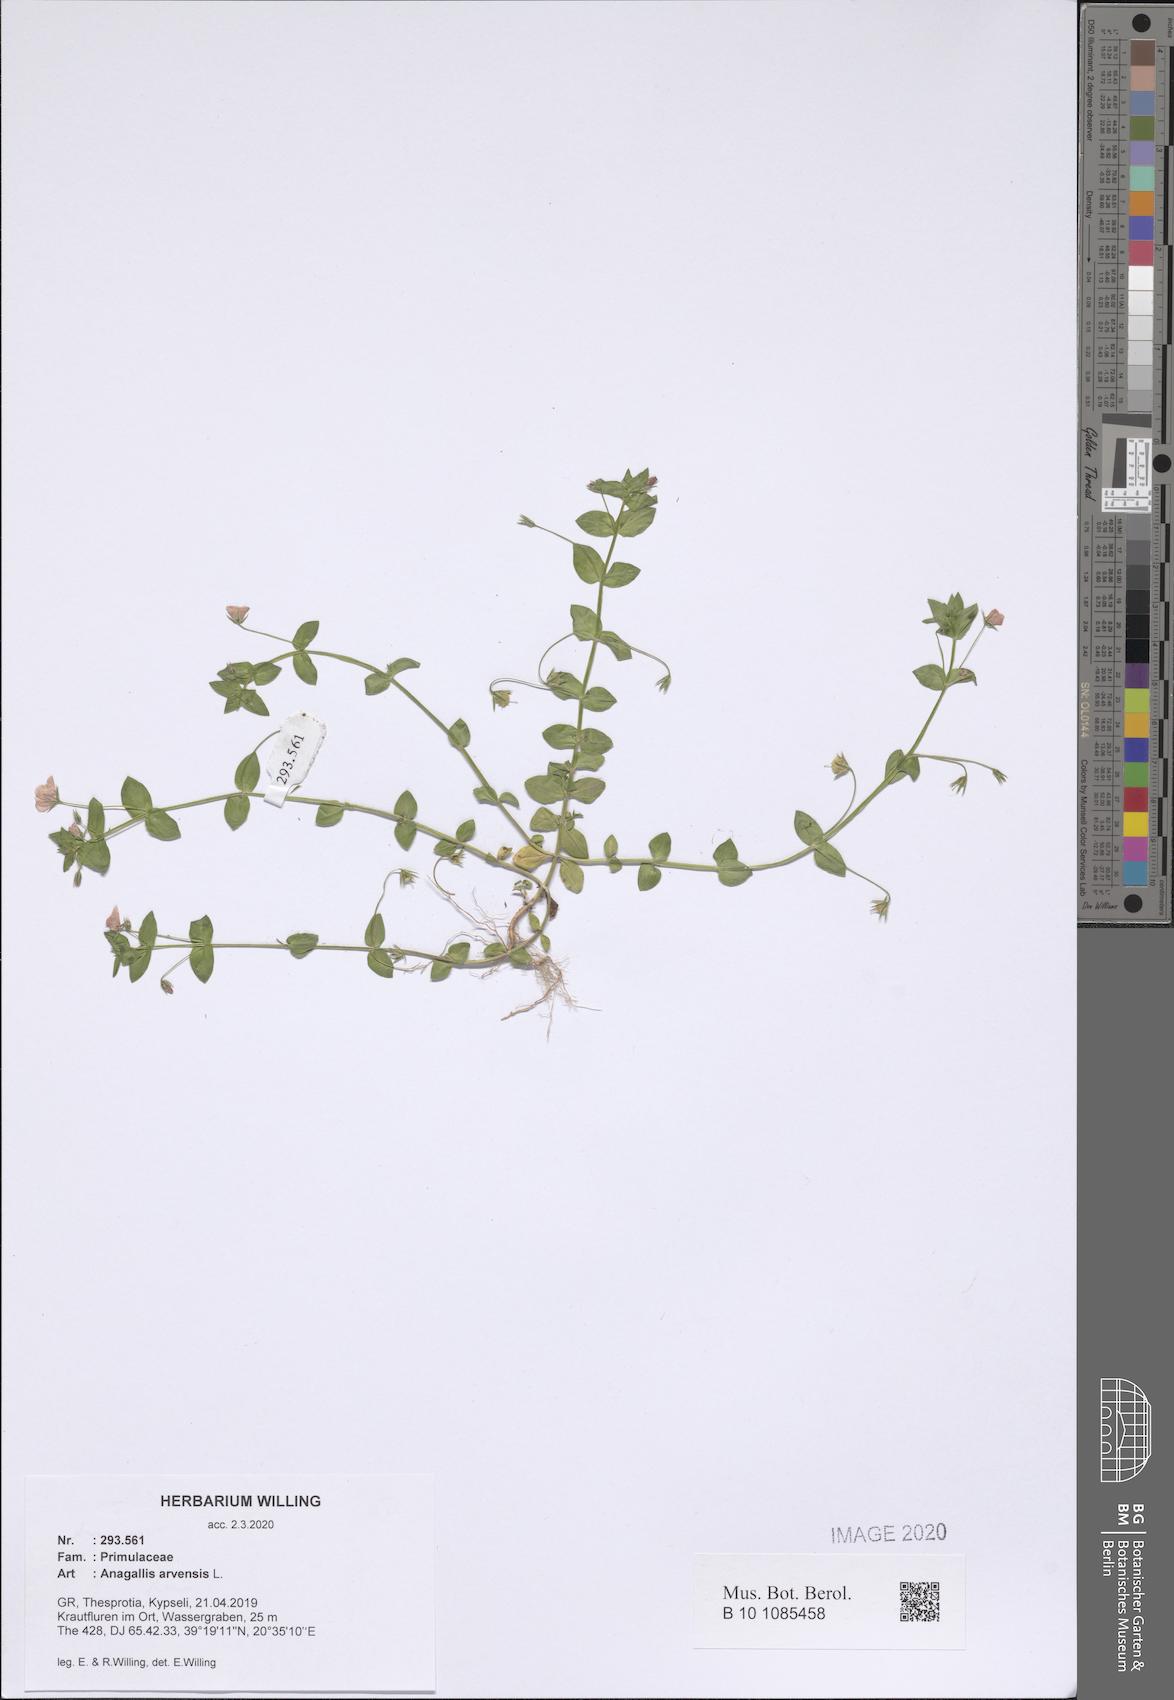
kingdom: Plantae
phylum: Tracheophyta
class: Magnoliopsida
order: Ericales
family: Primulaceae
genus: Lysimachia
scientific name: Lysimachia arvensis
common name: Scarlet pimpernel
